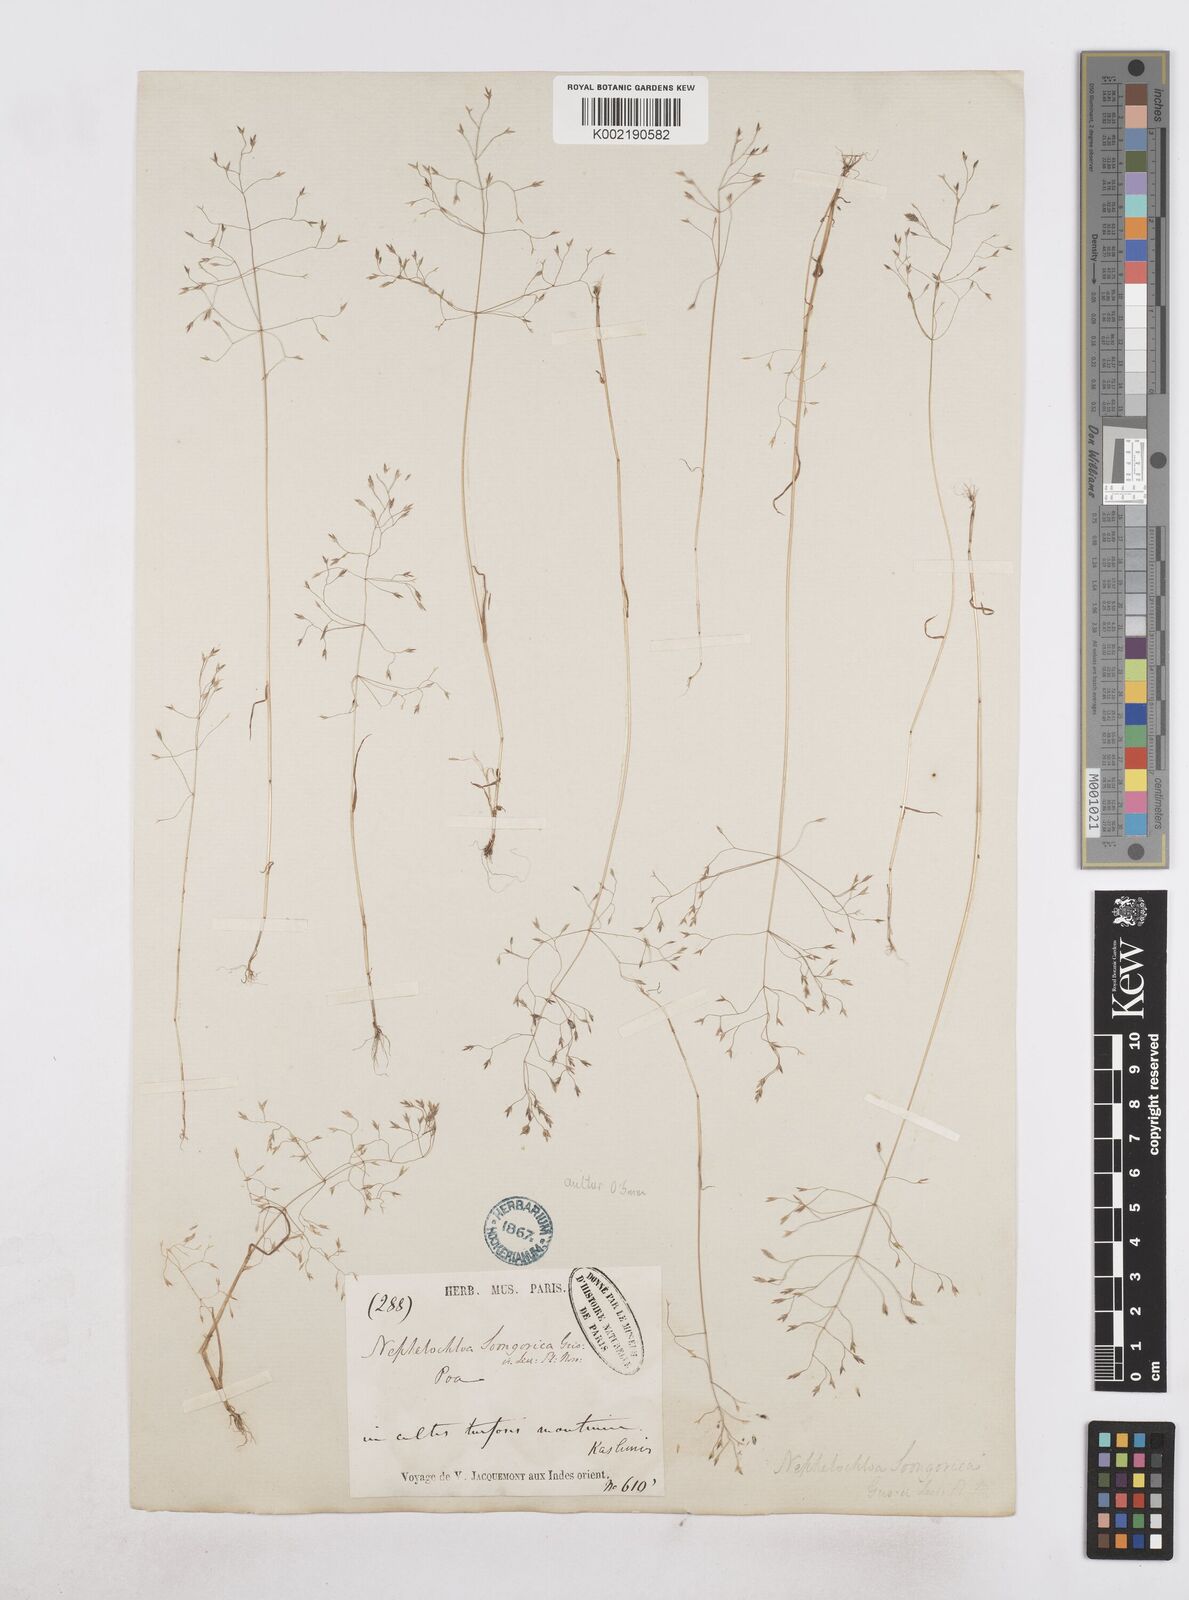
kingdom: Plantae
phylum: Tracheophyta
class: Liliopsida
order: Poales
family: Poaceae
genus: Poa
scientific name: Poa diaphora
